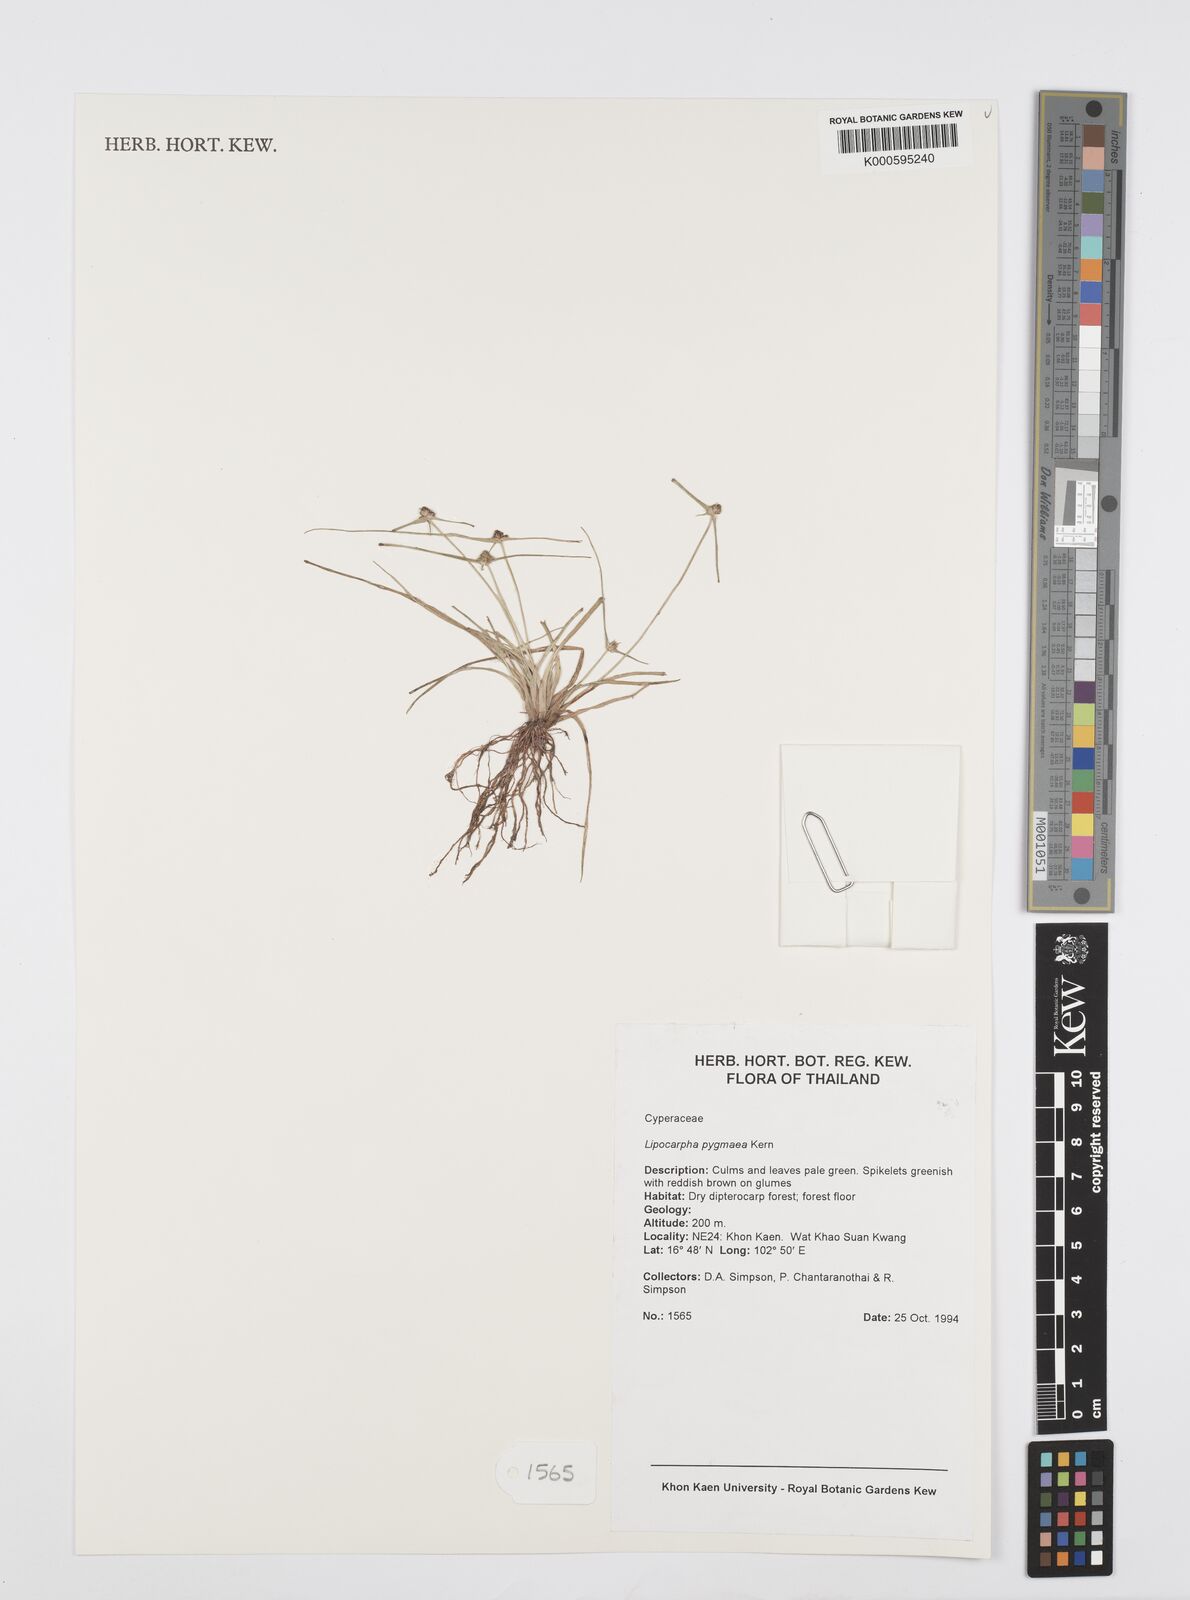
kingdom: Plantae
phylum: Tracheophyta
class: Liliopsida
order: Poales
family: Cyperaceae
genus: Cyperus
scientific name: Cyperus lipopygmaeus
